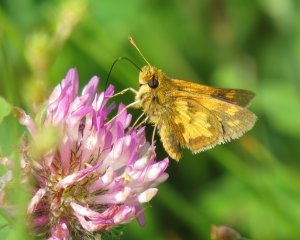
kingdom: Animalia
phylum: Arthropoda
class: Insecta
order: Lepidoptera
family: Hesperiidae
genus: Polites
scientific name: Polites coras
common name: Peck's Skipper
